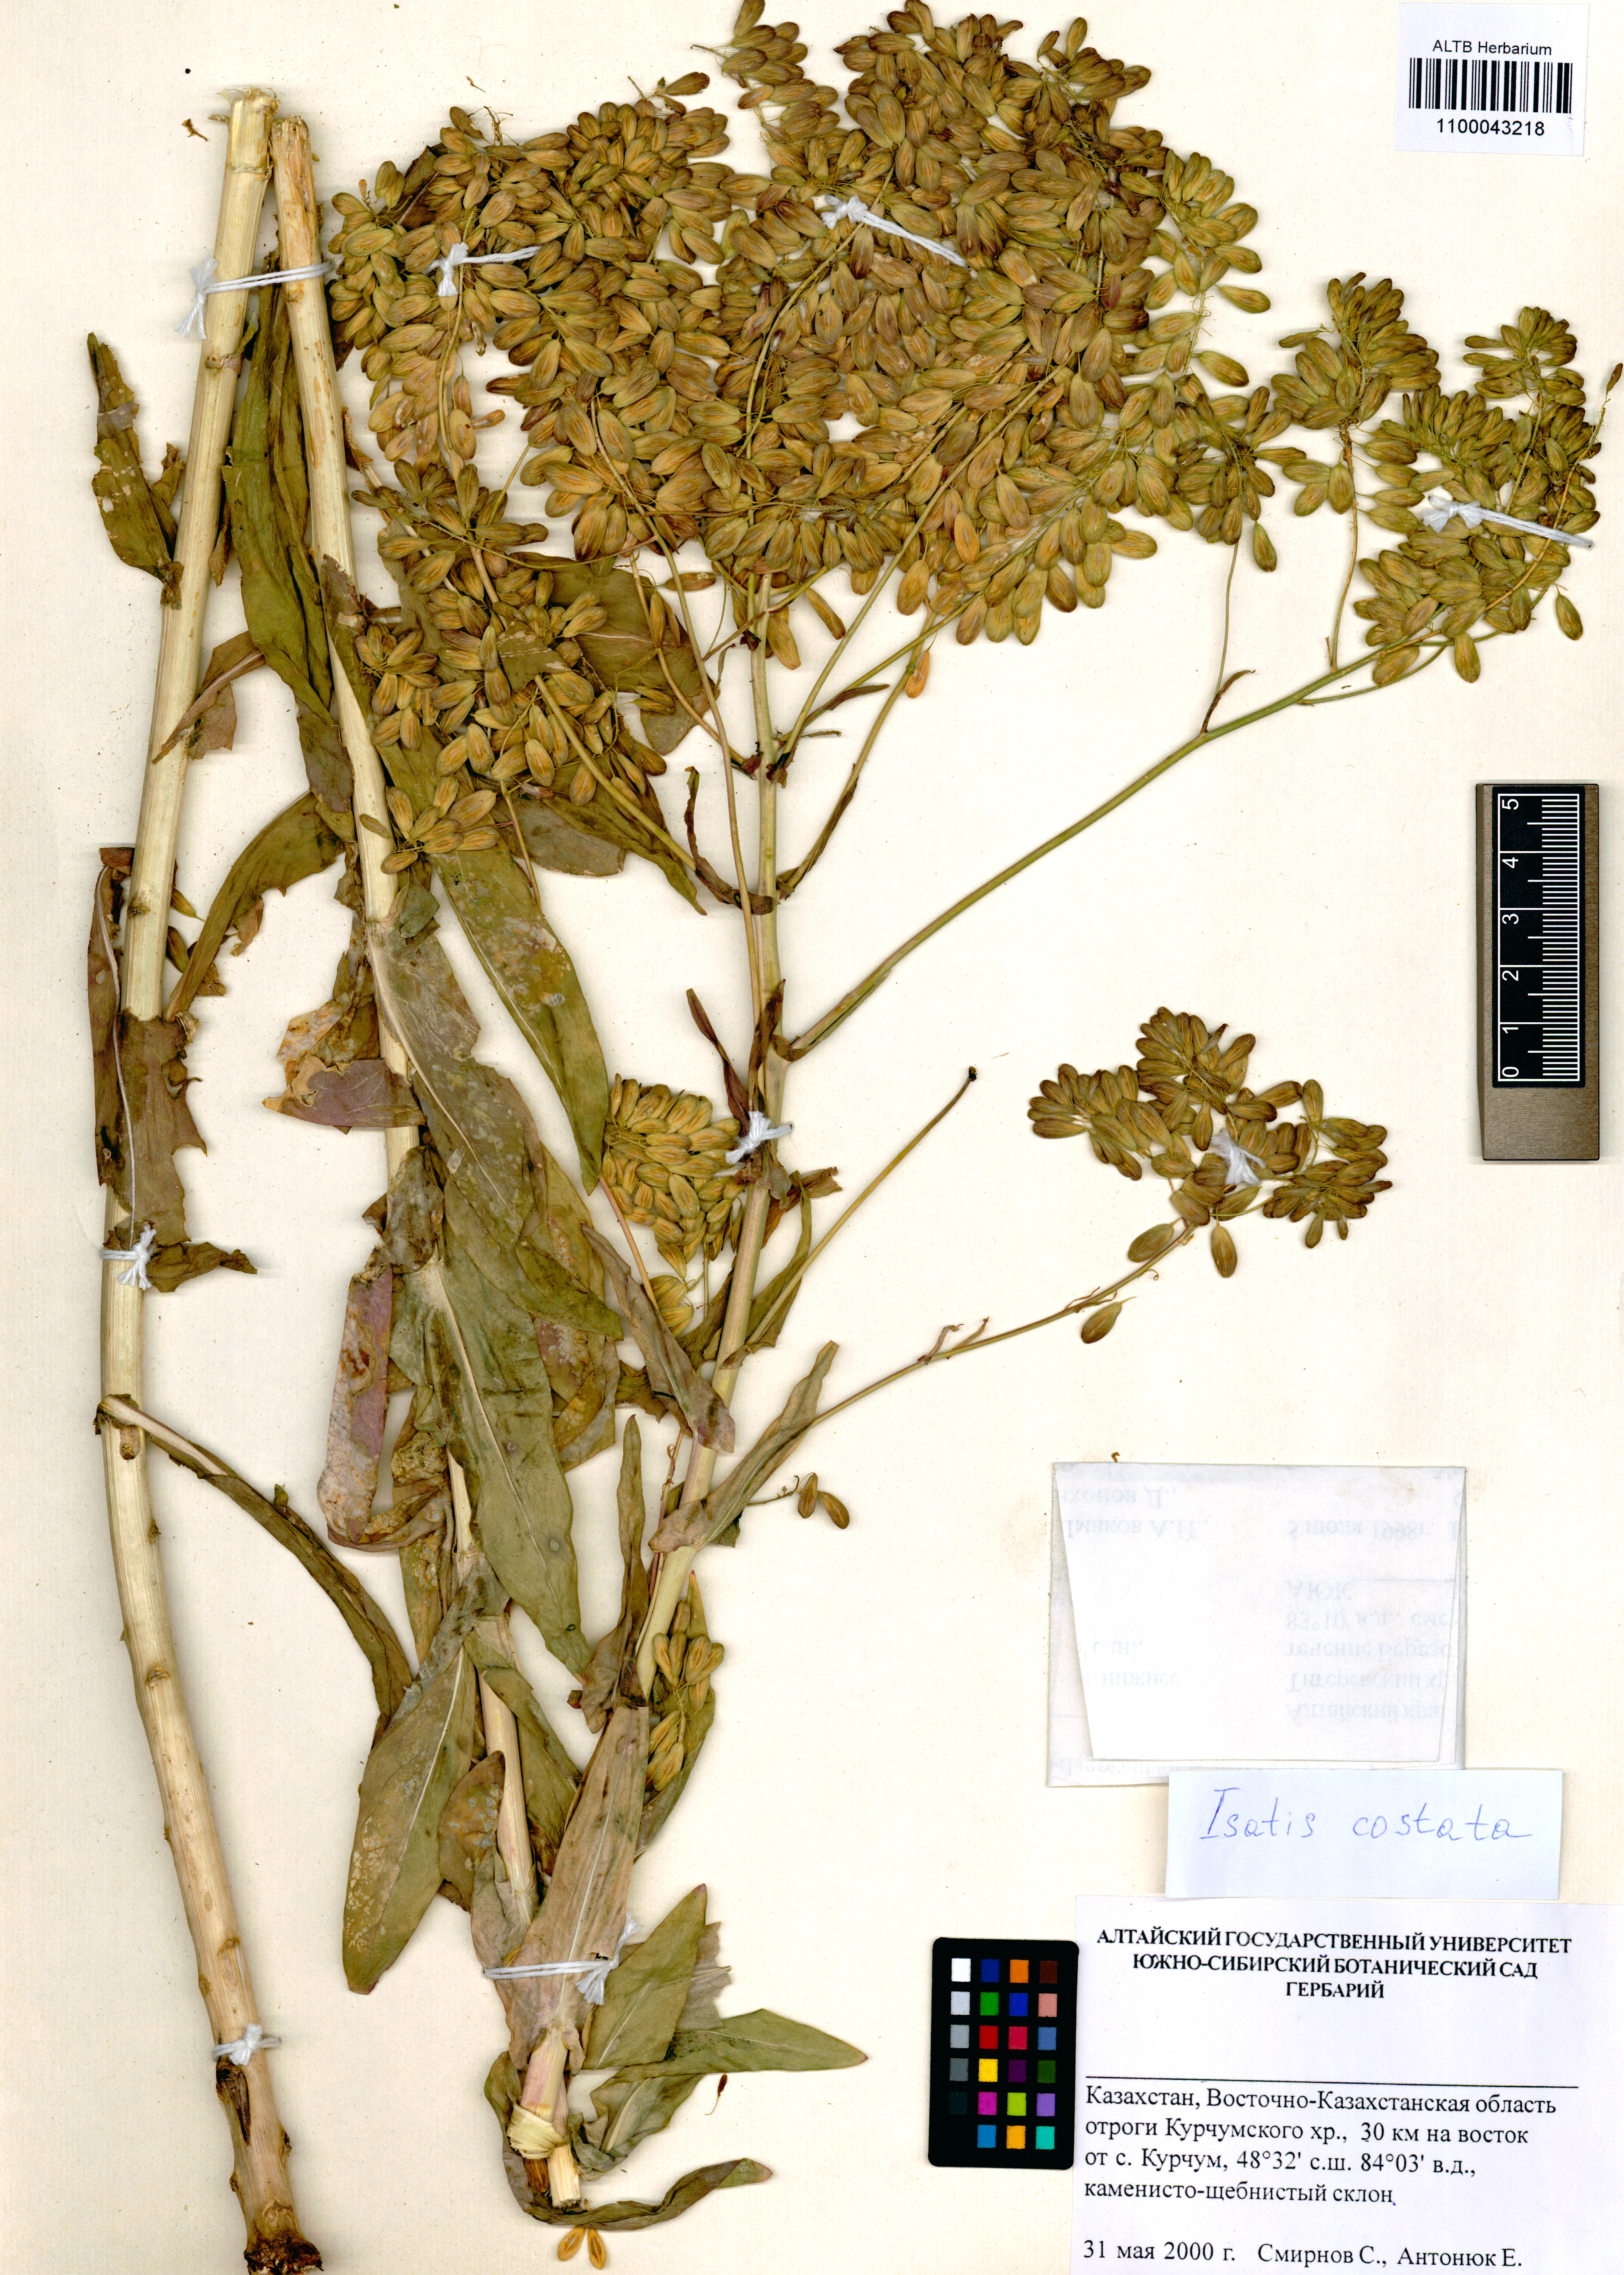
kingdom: Plantae
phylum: Tracheophyta
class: Magnoliopsida
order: Brassicales
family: Brassicaceae
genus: Isatis
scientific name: Isatis costata
